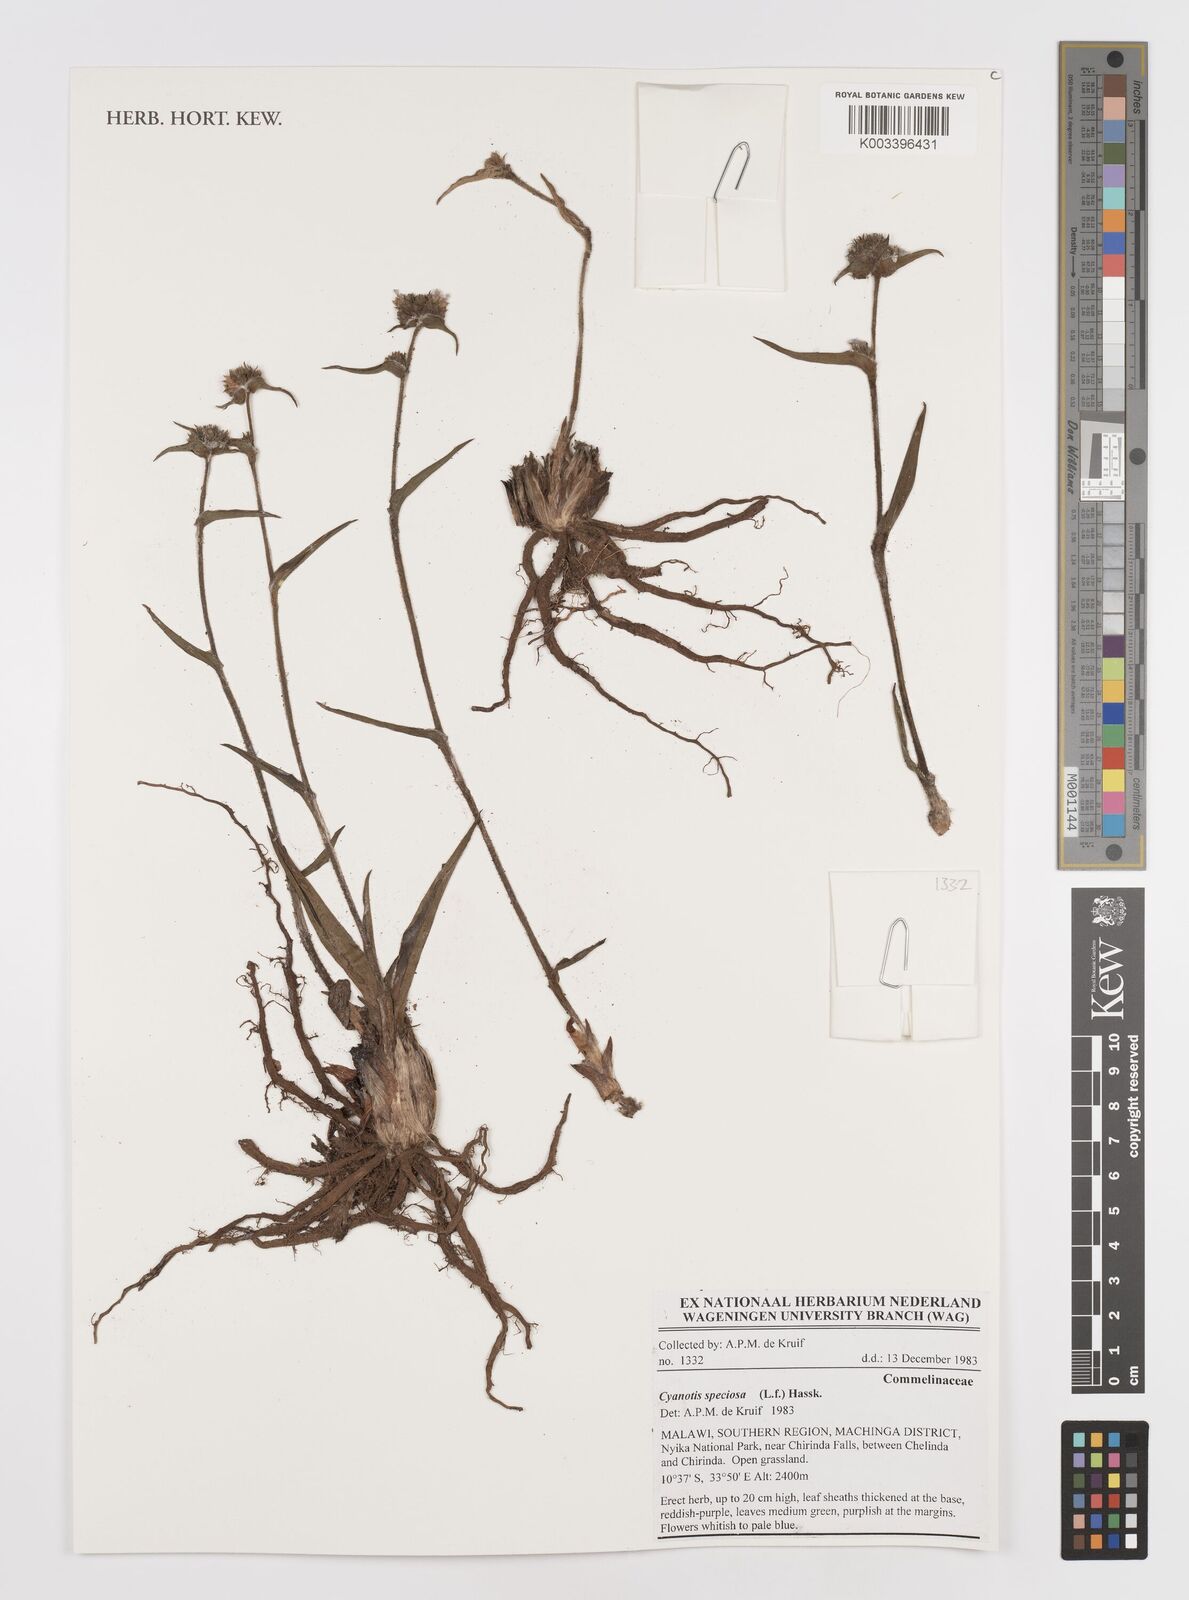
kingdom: Plantae
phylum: Tracheophyta
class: Liliopsida
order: Commelinales
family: Commelinaceae
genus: Cyanotis
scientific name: Cyanotis speciosa
